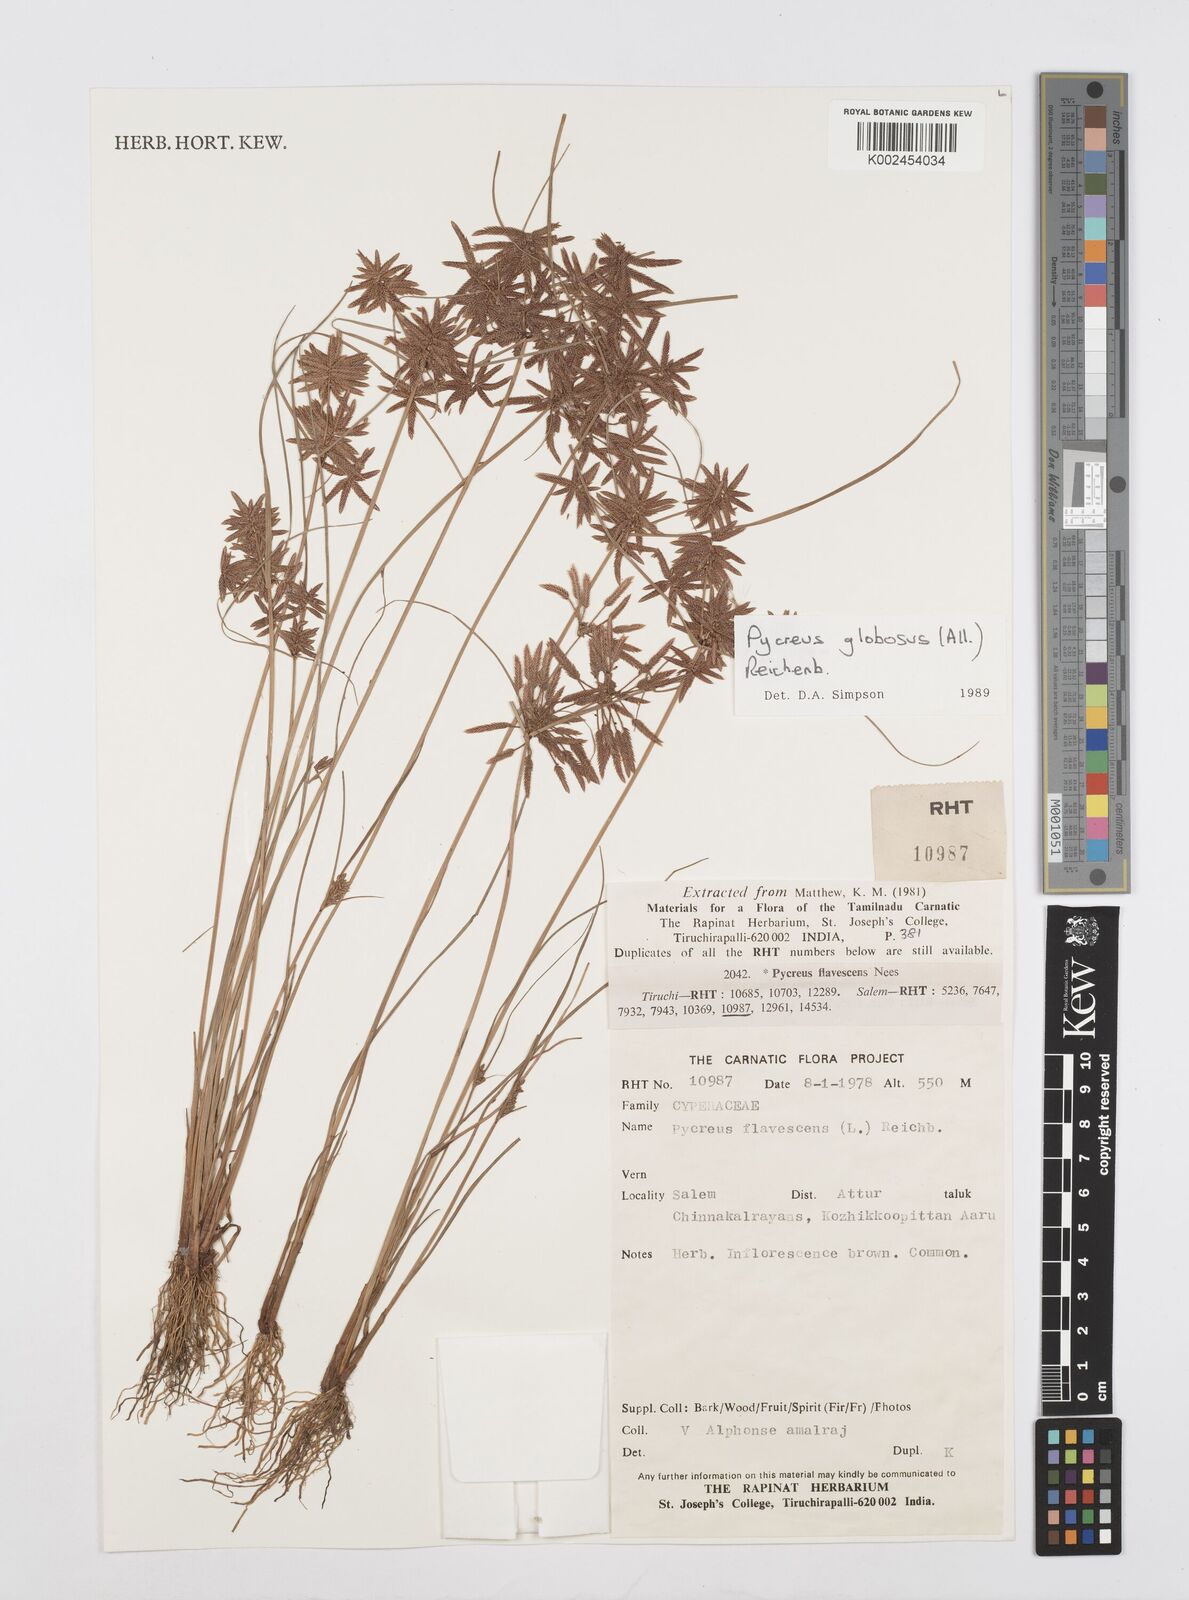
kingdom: Plantae
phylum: Tracheophyta
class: Liliopsida
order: Poales
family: Cyperaceae
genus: Cyperus
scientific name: Cyperus flavidus
